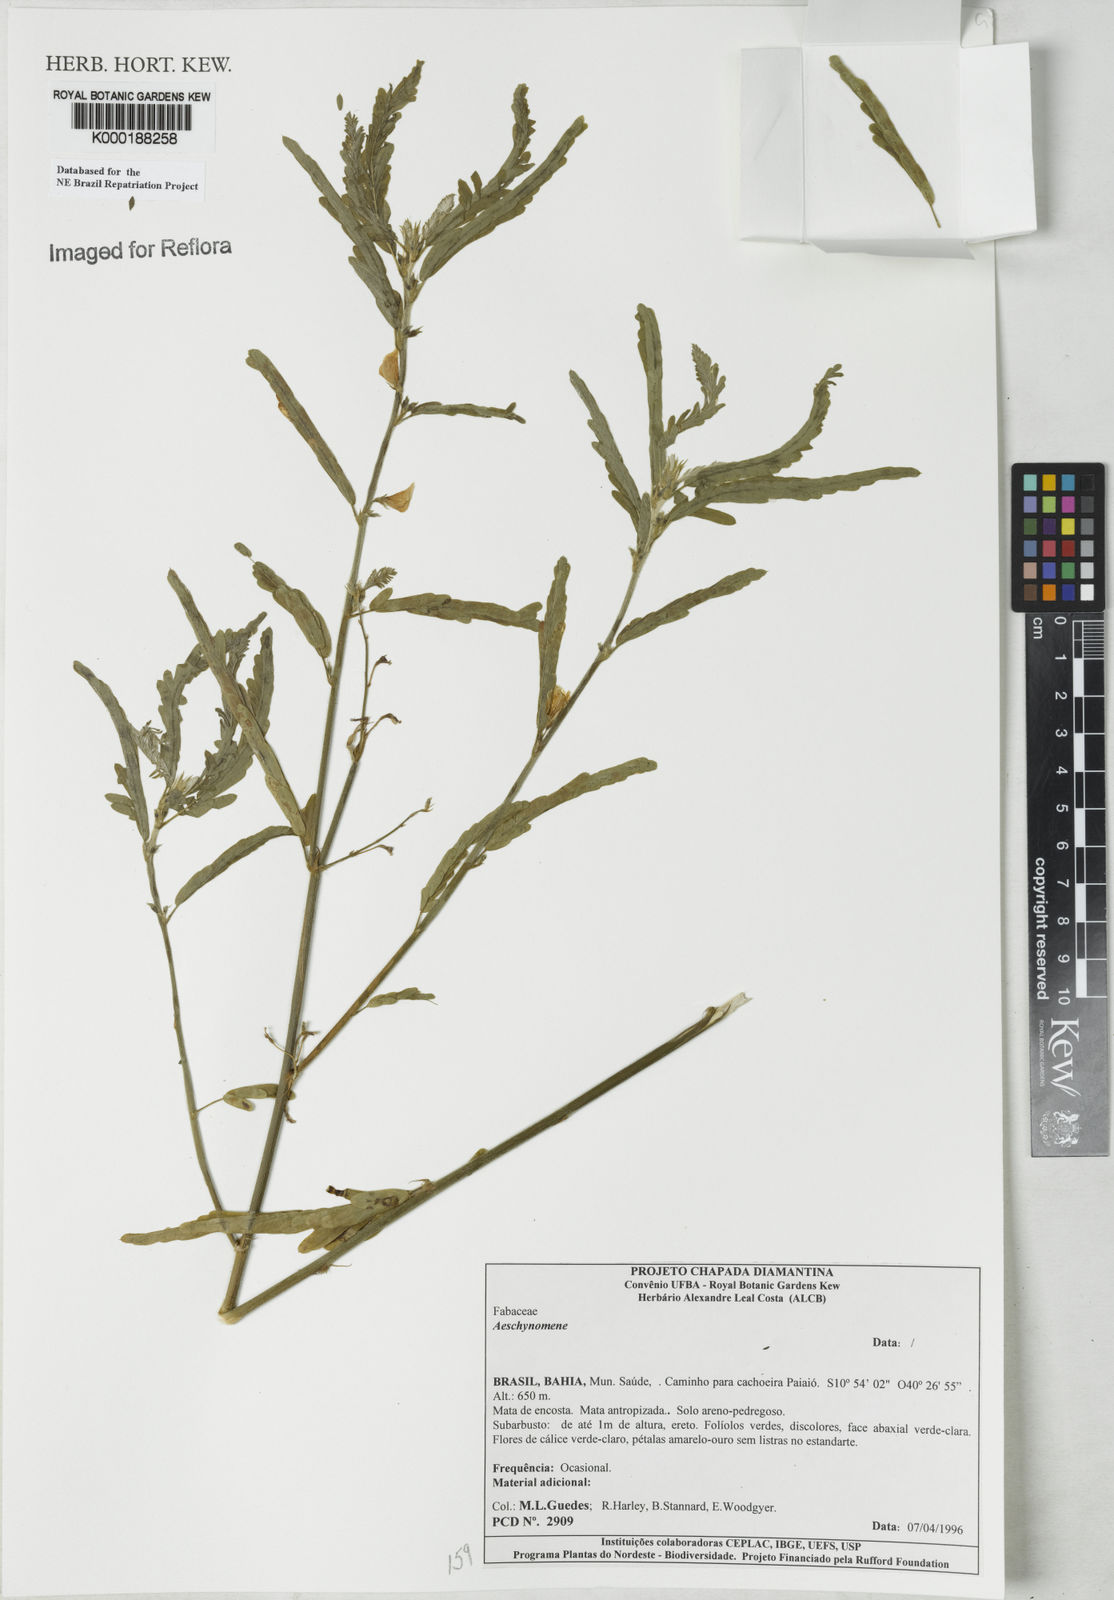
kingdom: Plantae
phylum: Tracheophyta
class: Magnoliopsida
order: Fabales
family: Fabaceae
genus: Aeschynomene
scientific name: Aeschynomene
